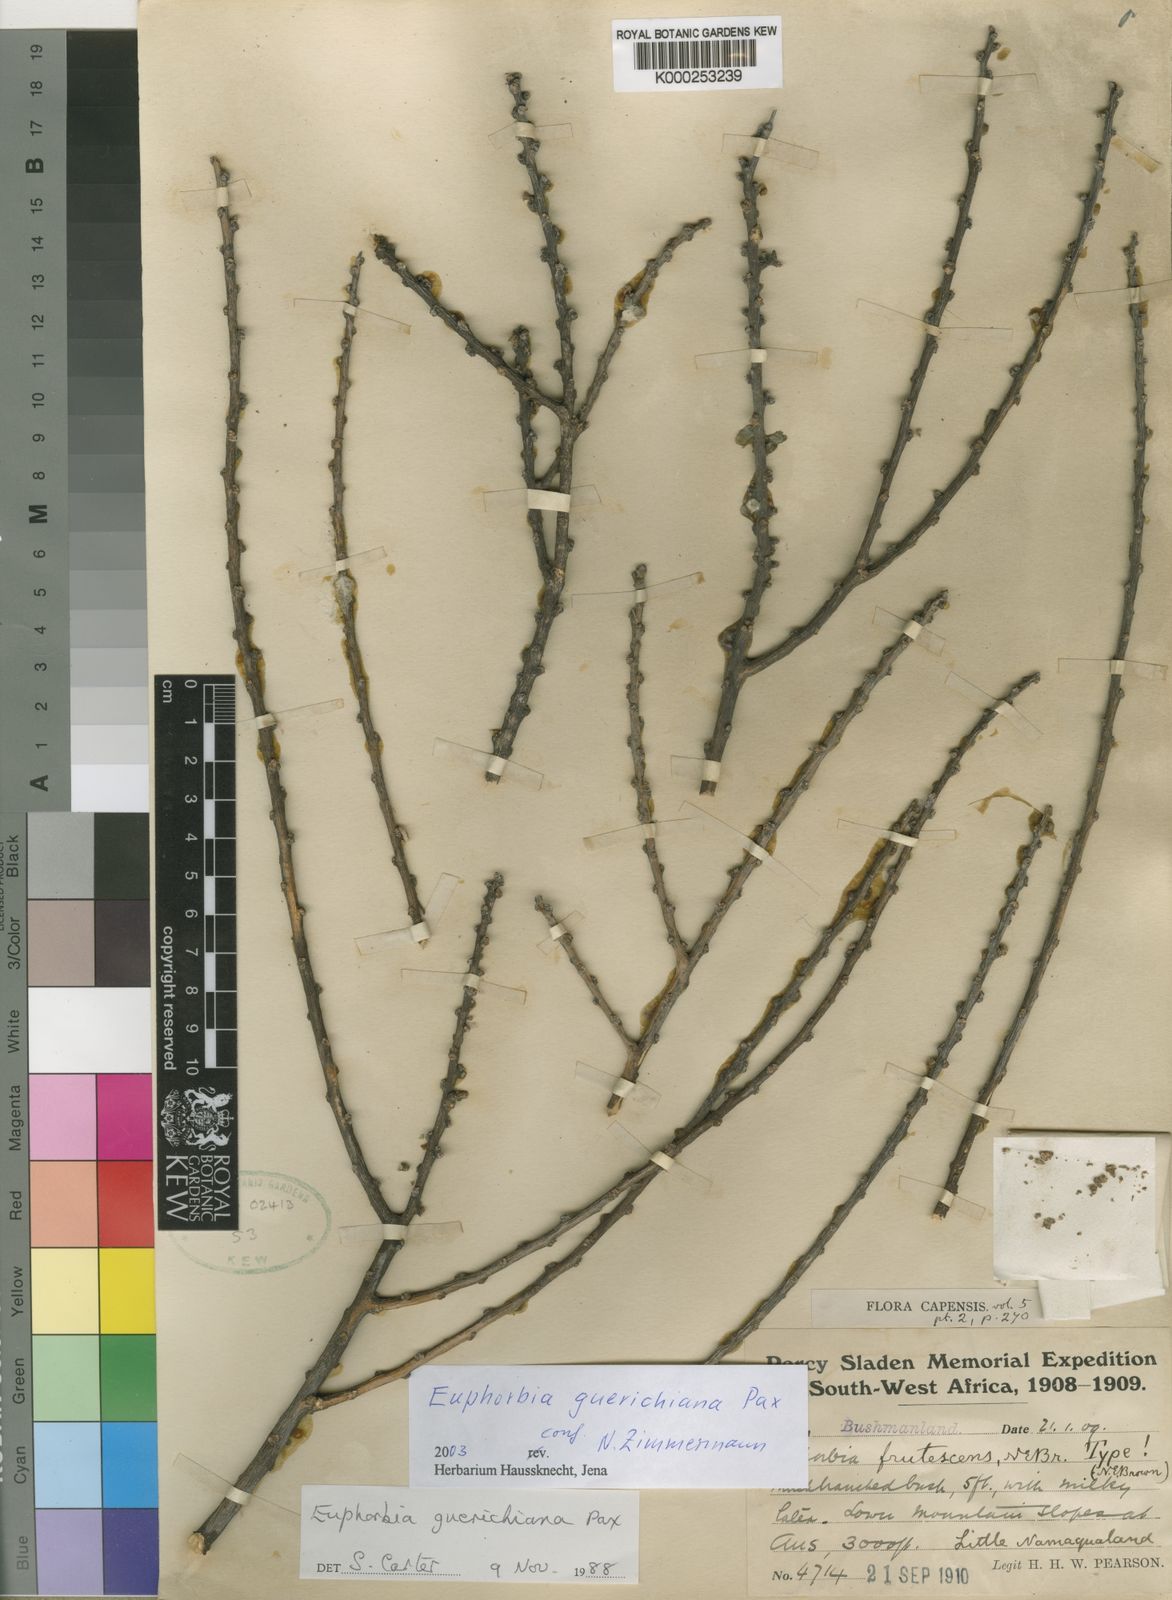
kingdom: Plantae
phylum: Tracheophyta
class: Magnoliopsida
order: Malpighiales
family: Euphorbiaceae
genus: Euphorbia
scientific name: Euphorbia
